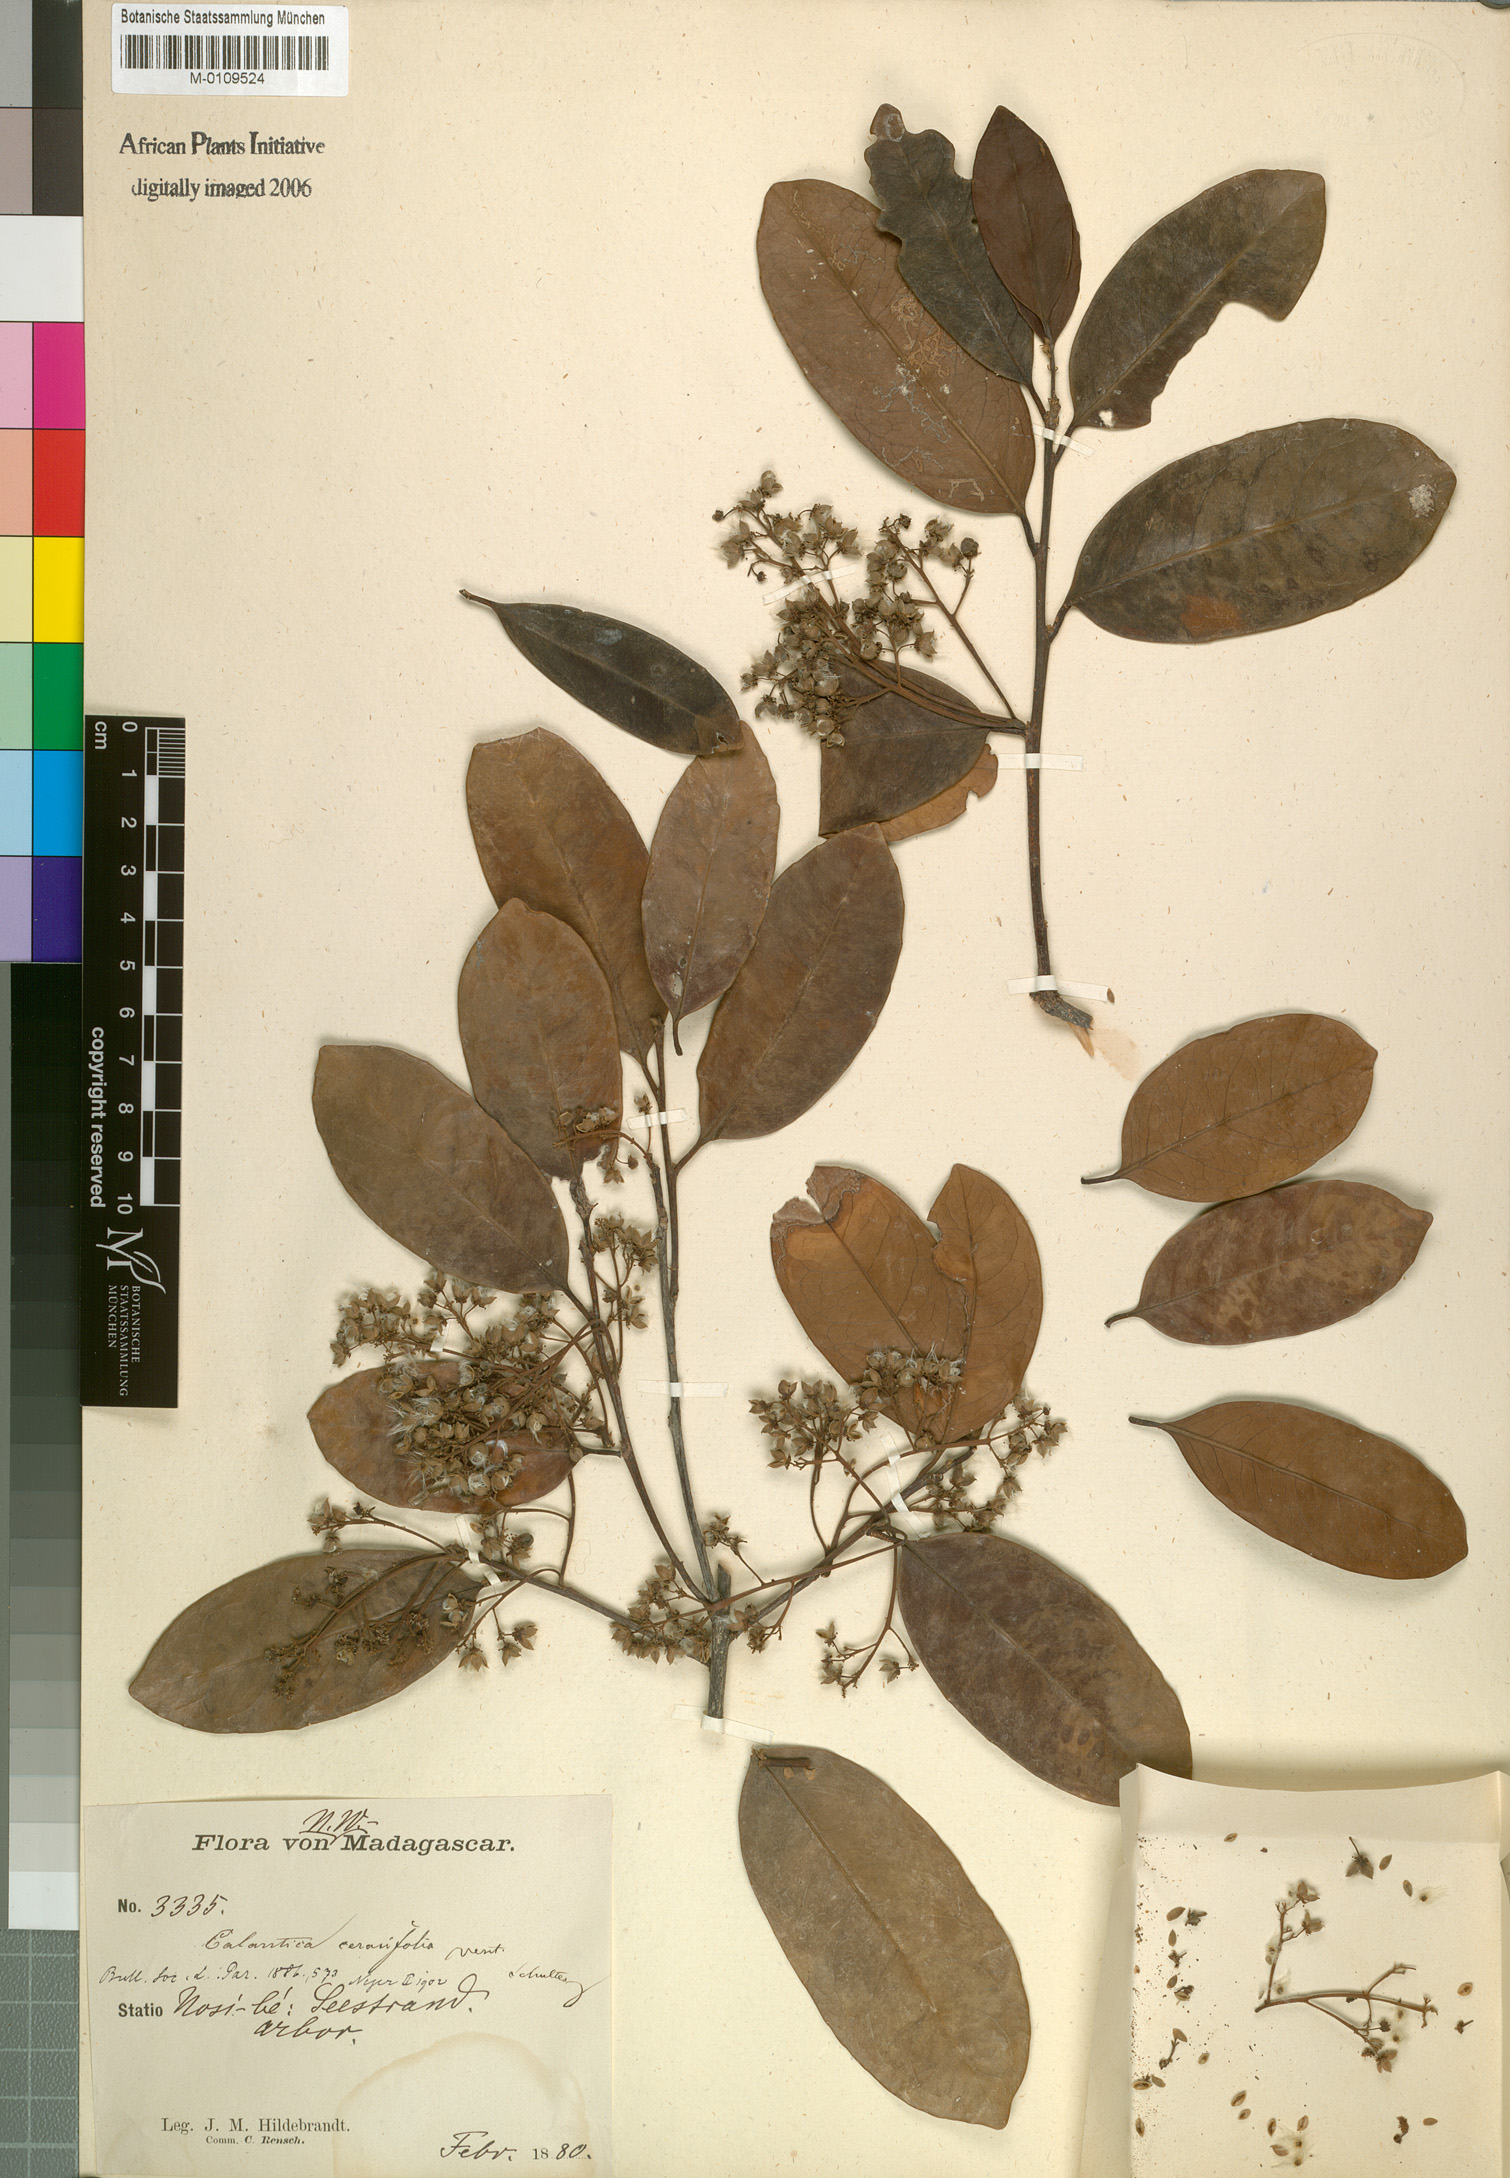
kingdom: Plantae
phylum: Tracheophyta
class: Magnoliopsida
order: Malpighiales
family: Salicaceae
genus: Calantica
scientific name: Calantica cerasifolia
